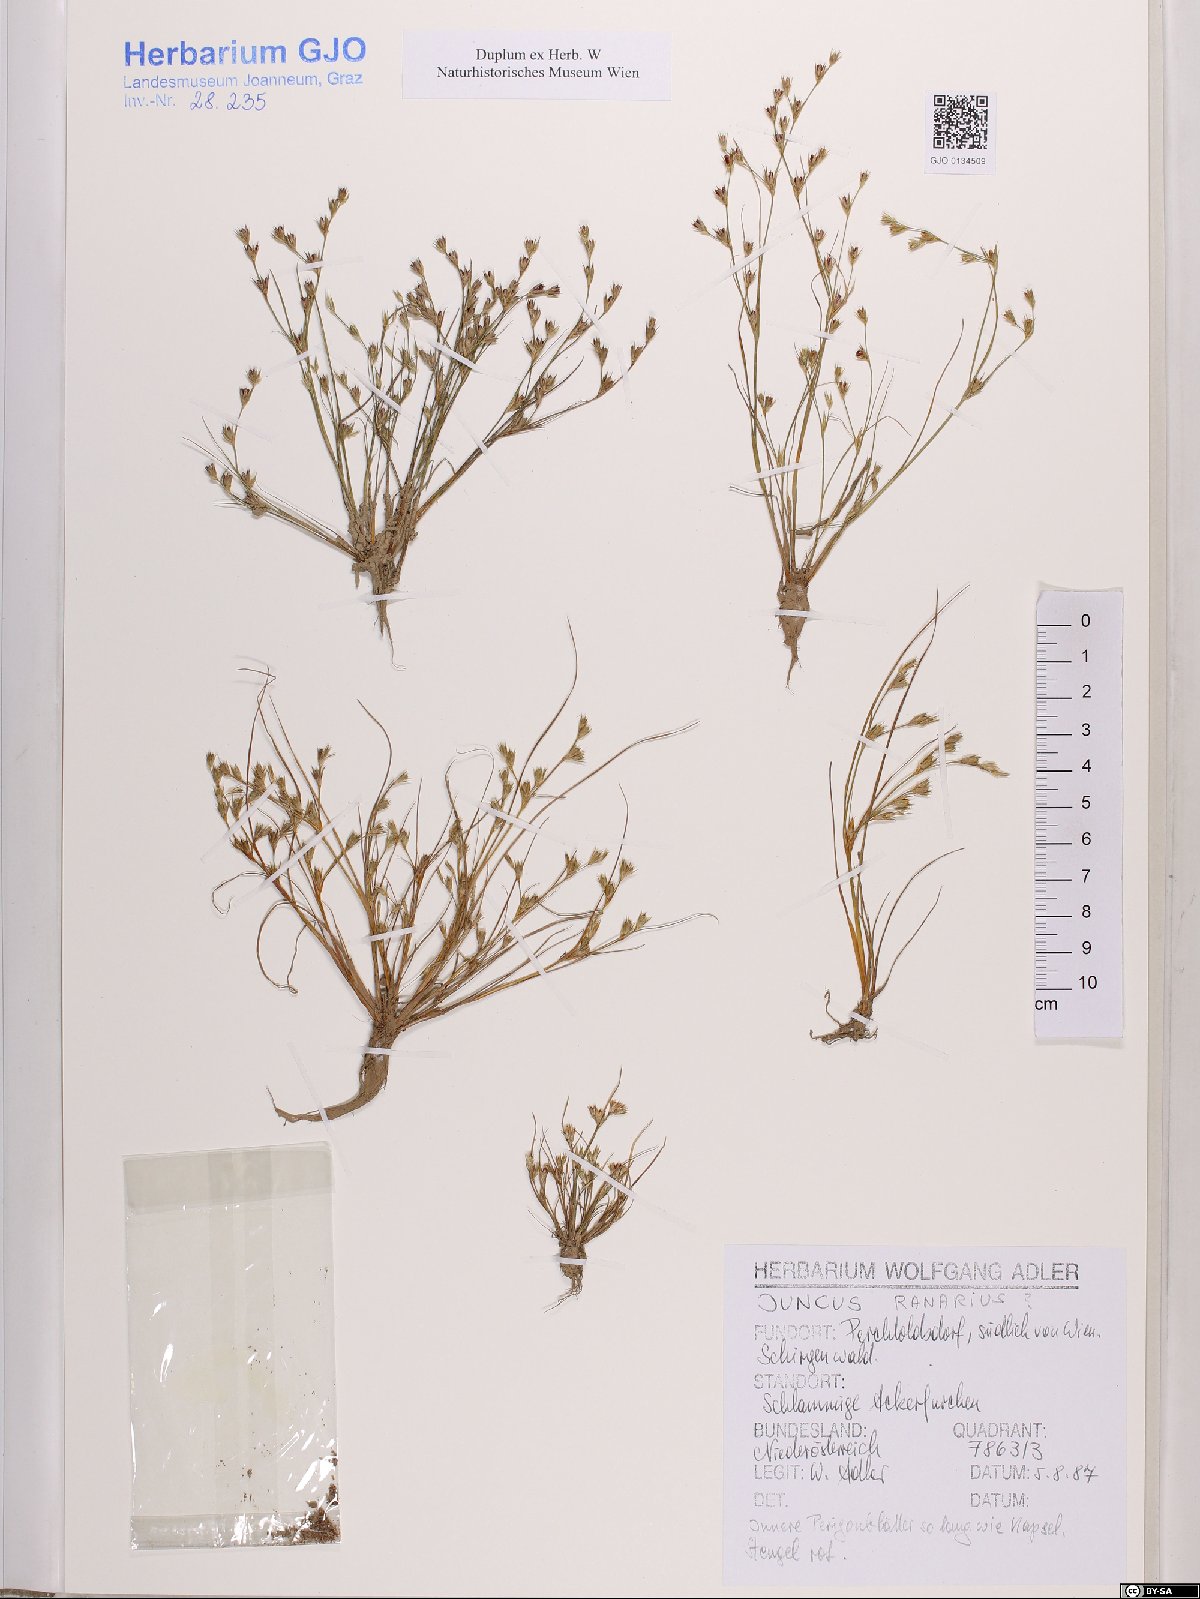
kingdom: Plantae
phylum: Tracheophyta
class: Liliopsida
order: Poales
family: Juncaceae
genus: Juncus
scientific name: Juncus ranarius
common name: Frog rush
